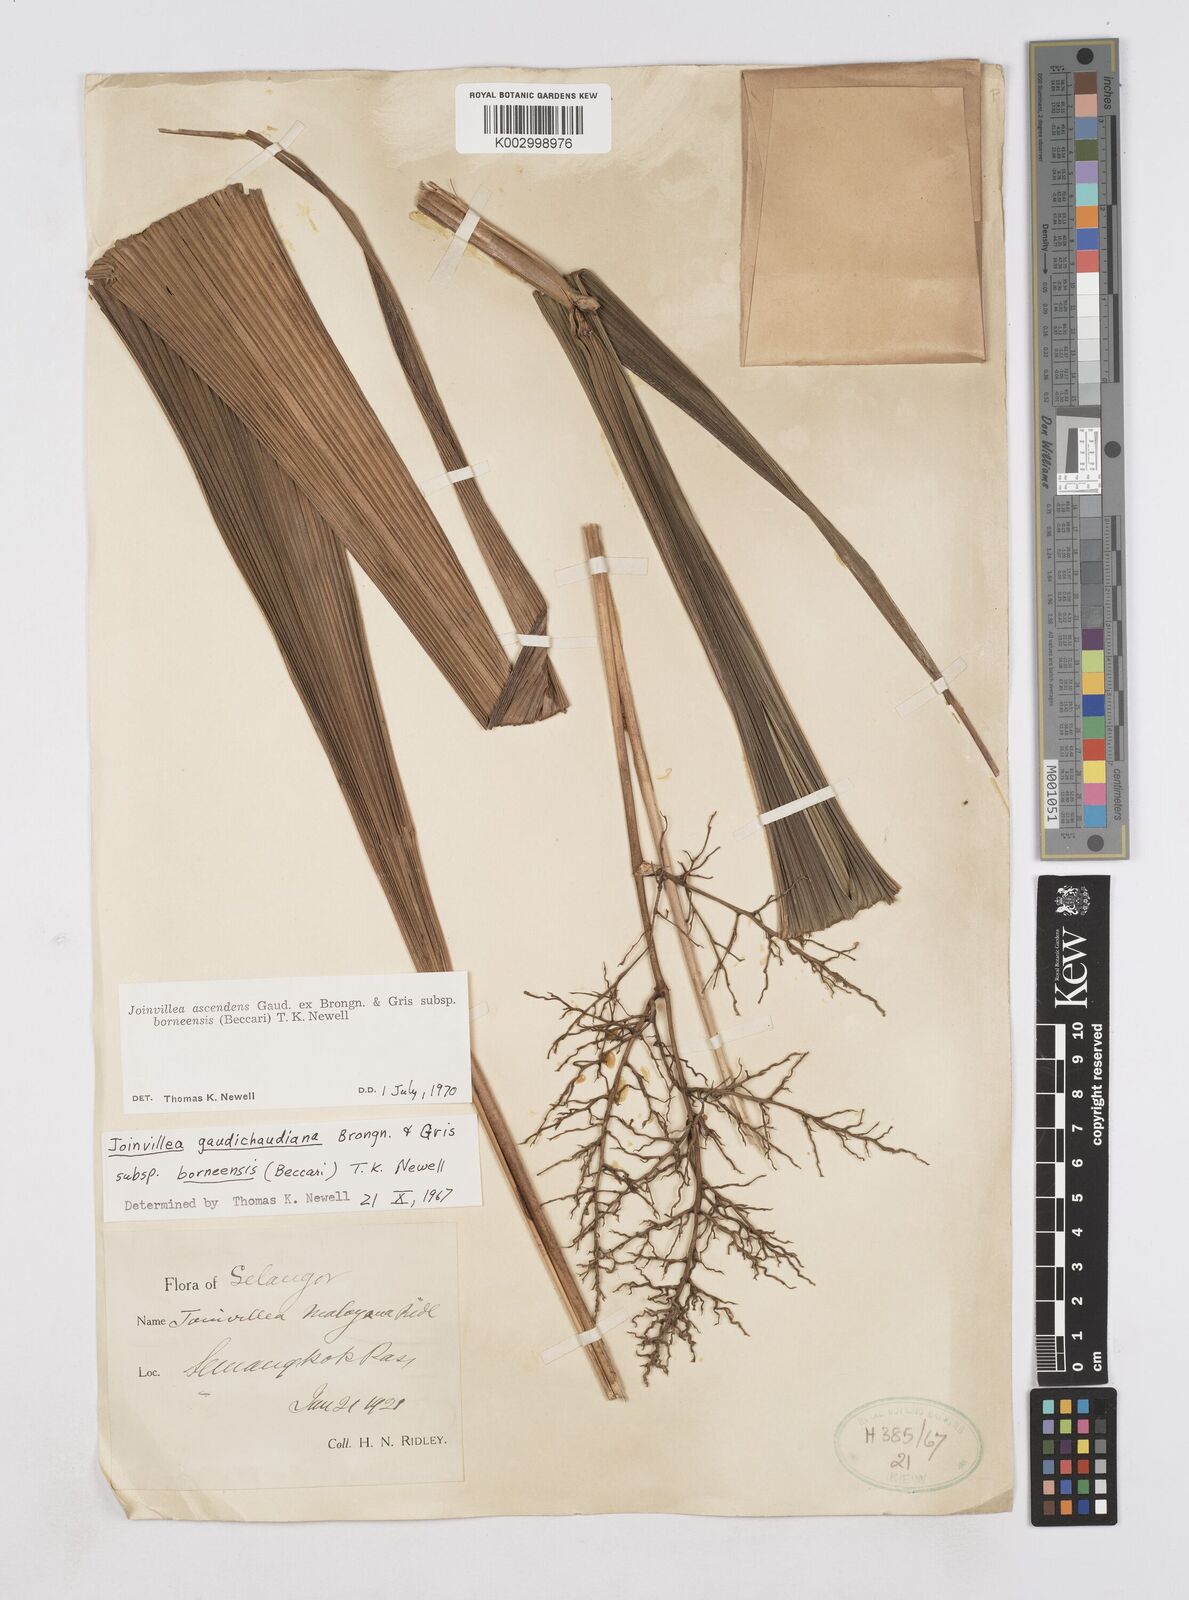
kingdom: Plantae
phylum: Tracheophyta
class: Liliopsida
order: Poales
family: Joinvilleaceae
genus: Joinvillea
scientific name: Joinvillea borneensis
